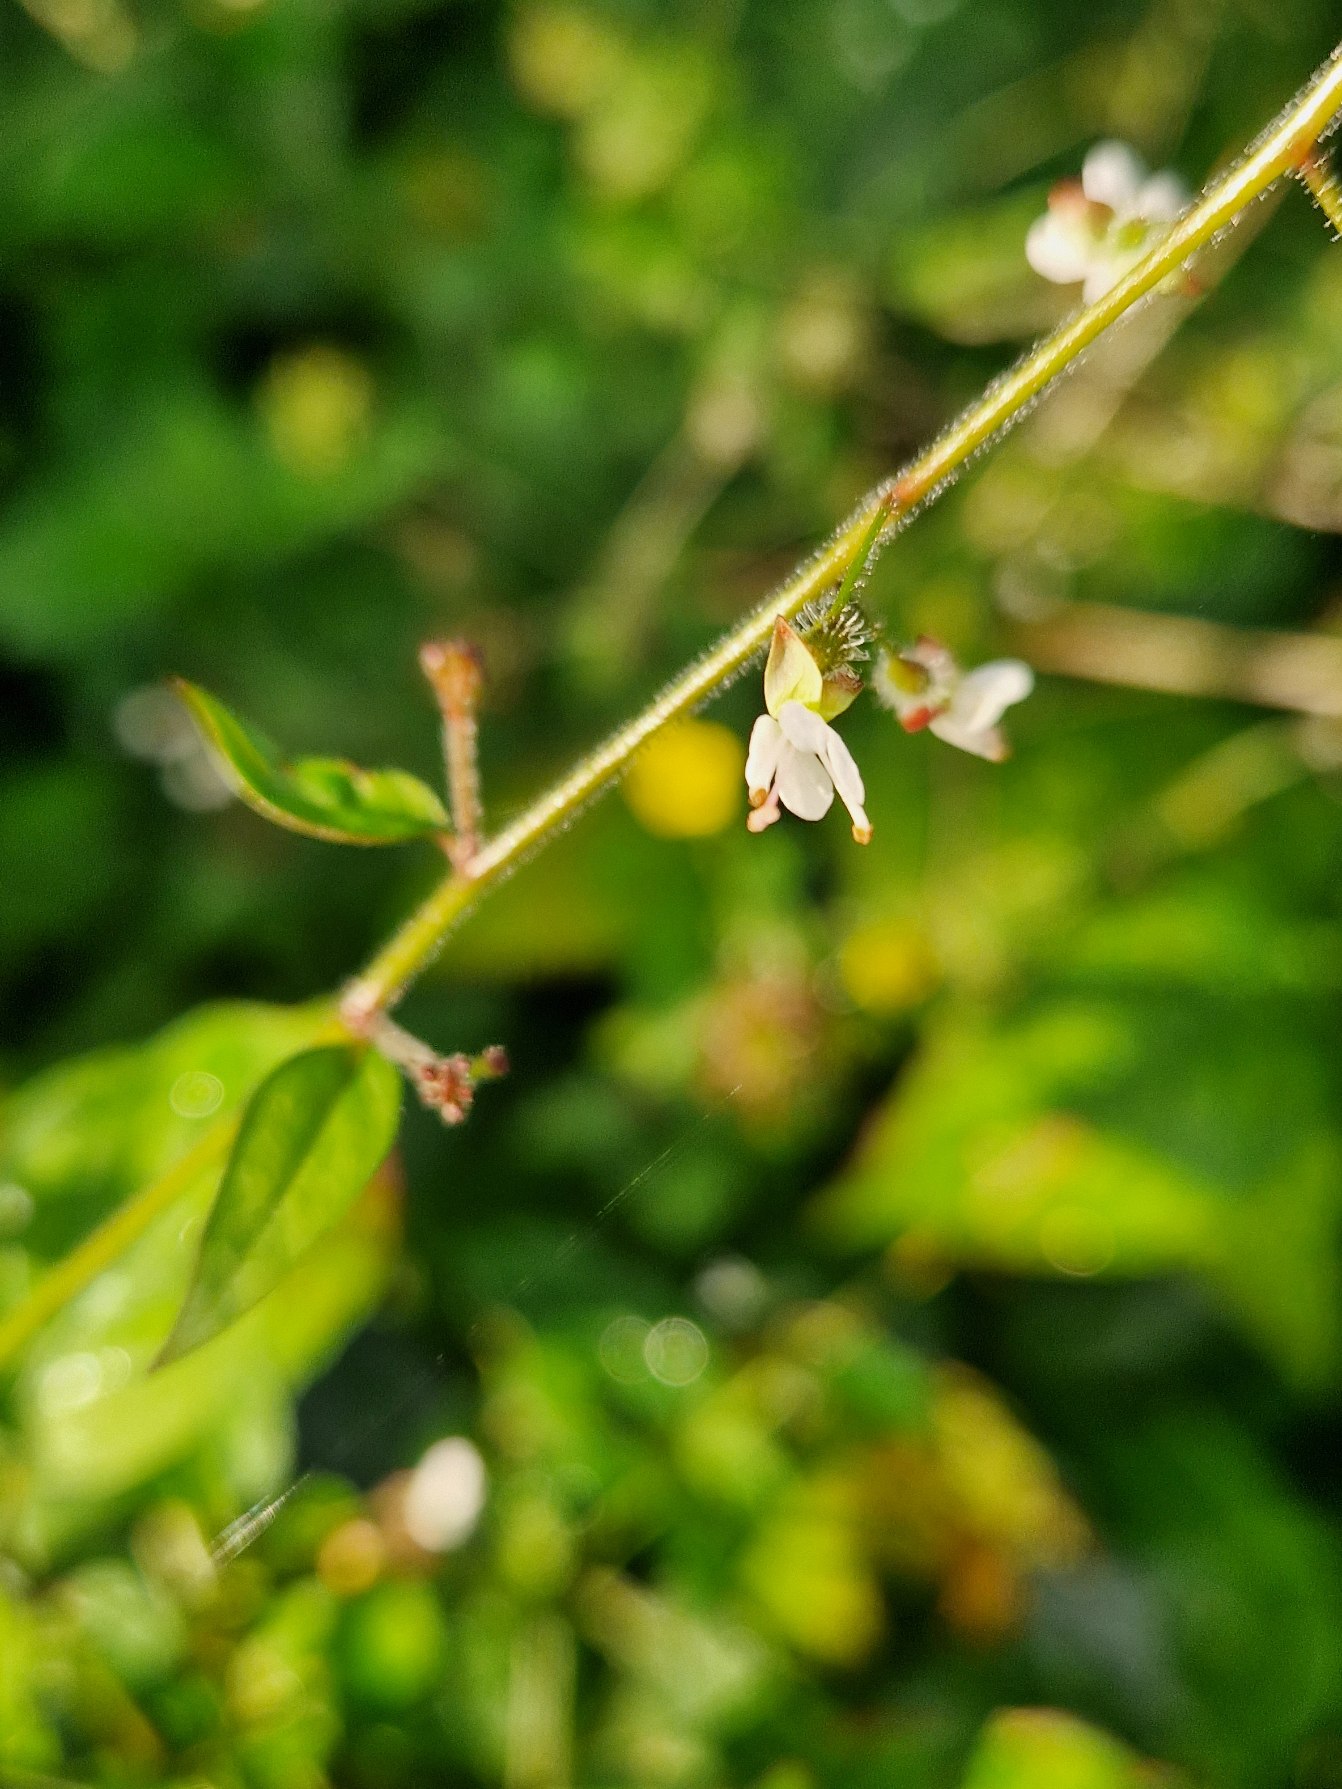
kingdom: Plantae
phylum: Tracheophyta
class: Magnoliopsida
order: Myrtales
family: Onagraceae
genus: Circaea
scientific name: Circaea lutetiana
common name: Dunet steffensurt
